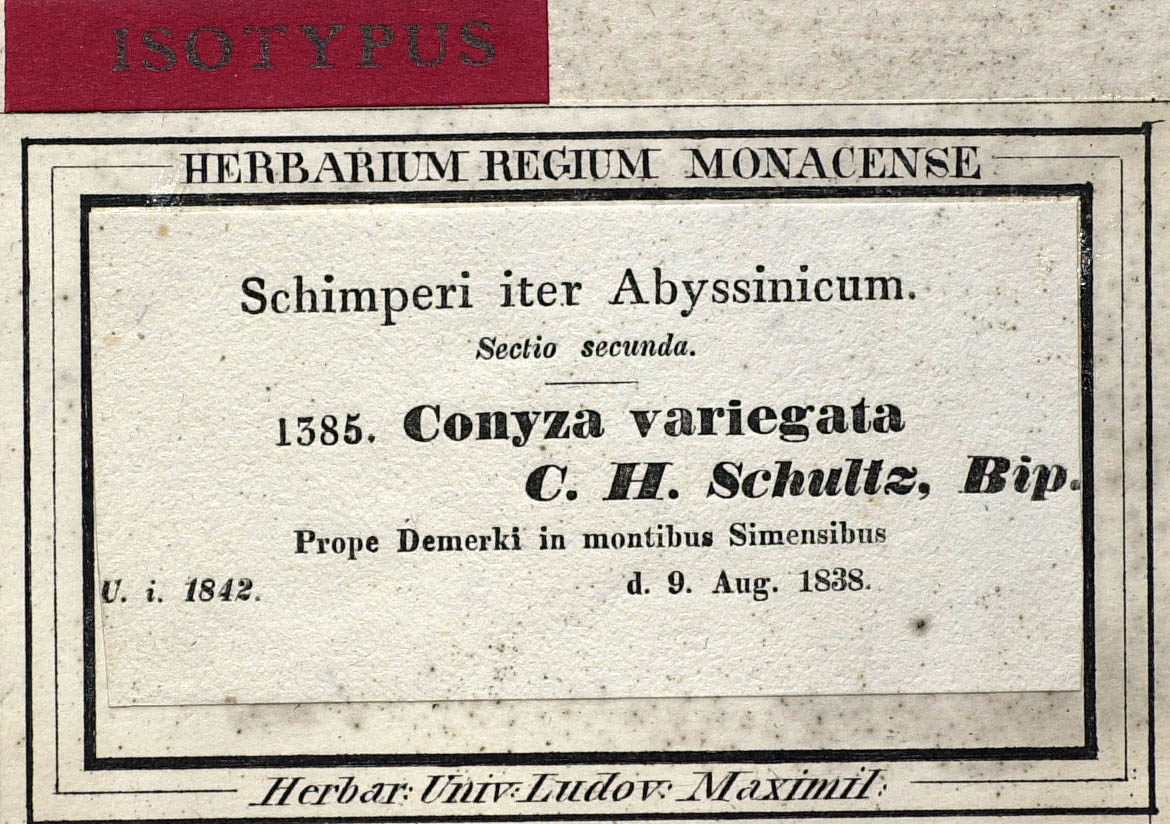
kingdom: Plantae
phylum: Tracheophyta
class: Magnoliopsida
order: Asterales
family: Asteraceae
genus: Conyza
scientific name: Conyza variegata
